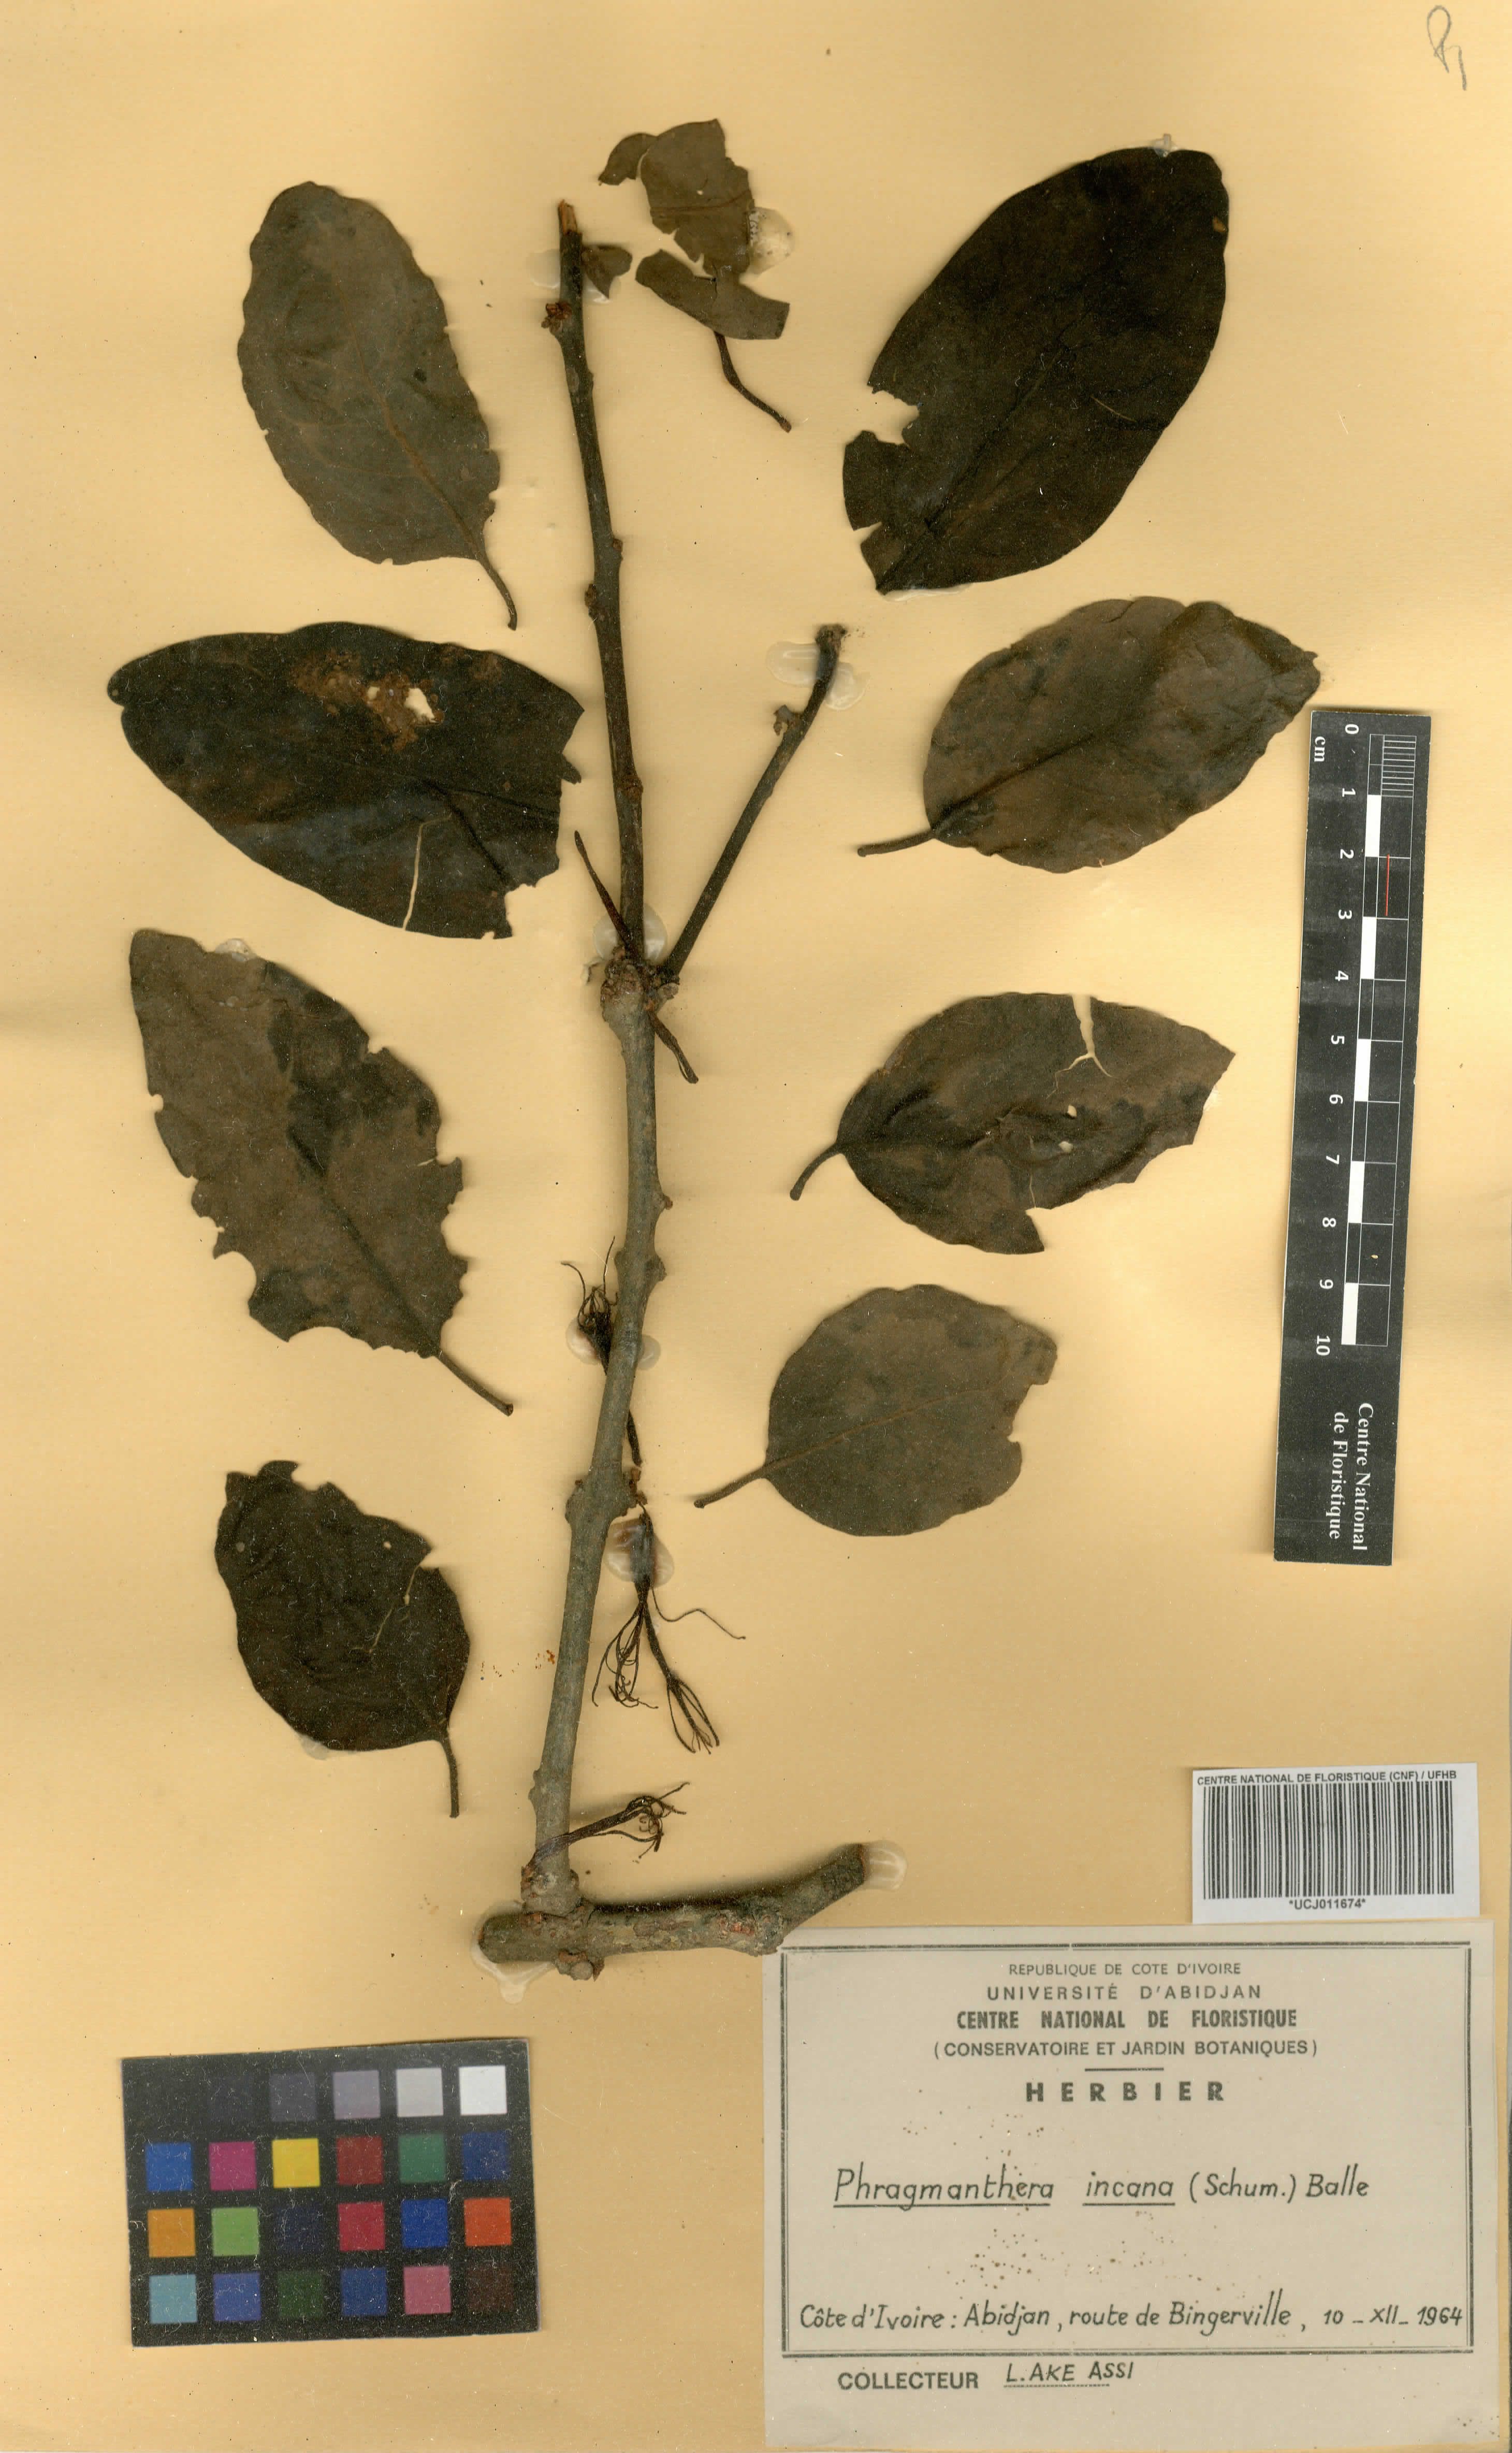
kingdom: Plantae
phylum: Tracheophyta
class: Magnoliopsida
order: Santalales
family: Loranthaceae
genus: Phragmanthera
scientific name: Phragmanthera capitata
